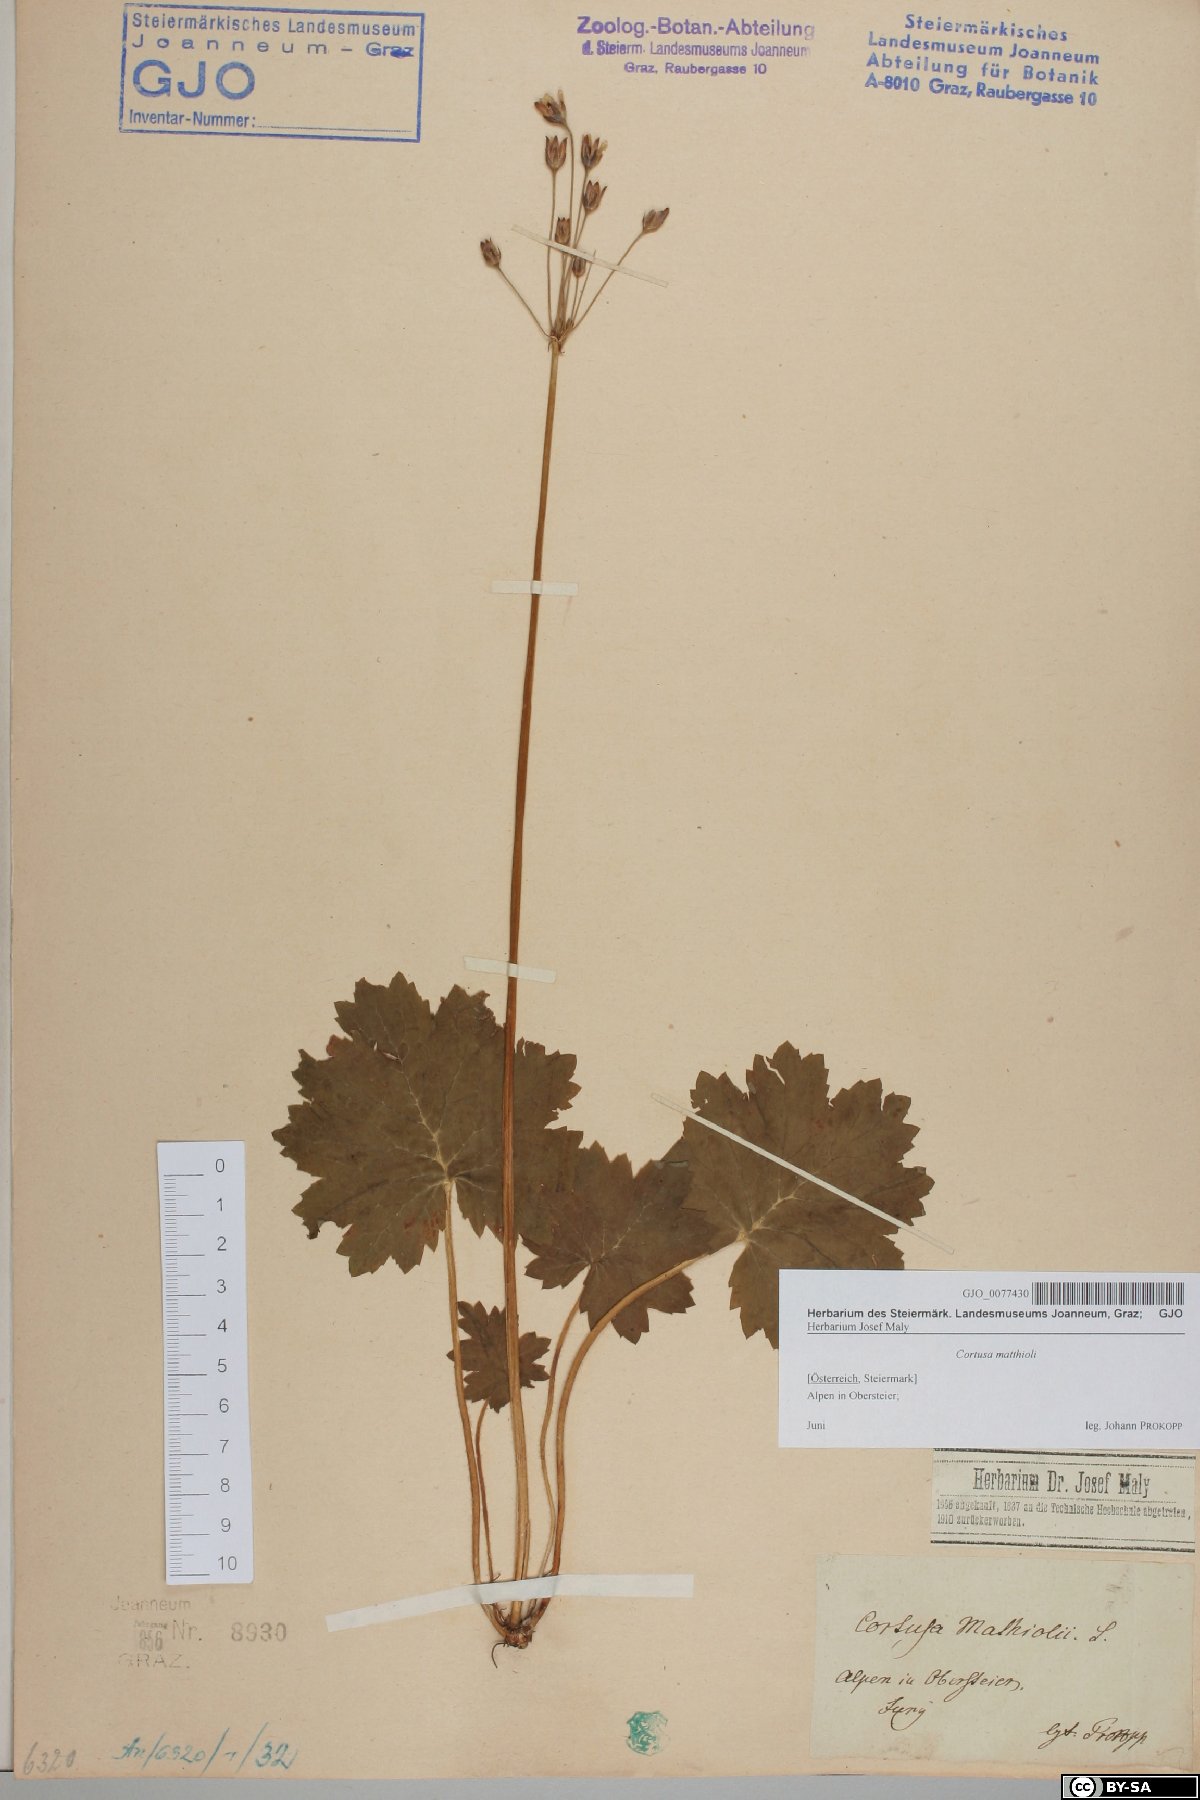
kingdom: Plantae
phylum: Tracheophyta
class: Magnoliopsida
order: Ericales
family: Primulaceae
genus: Primula
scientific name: Primula matthioli
